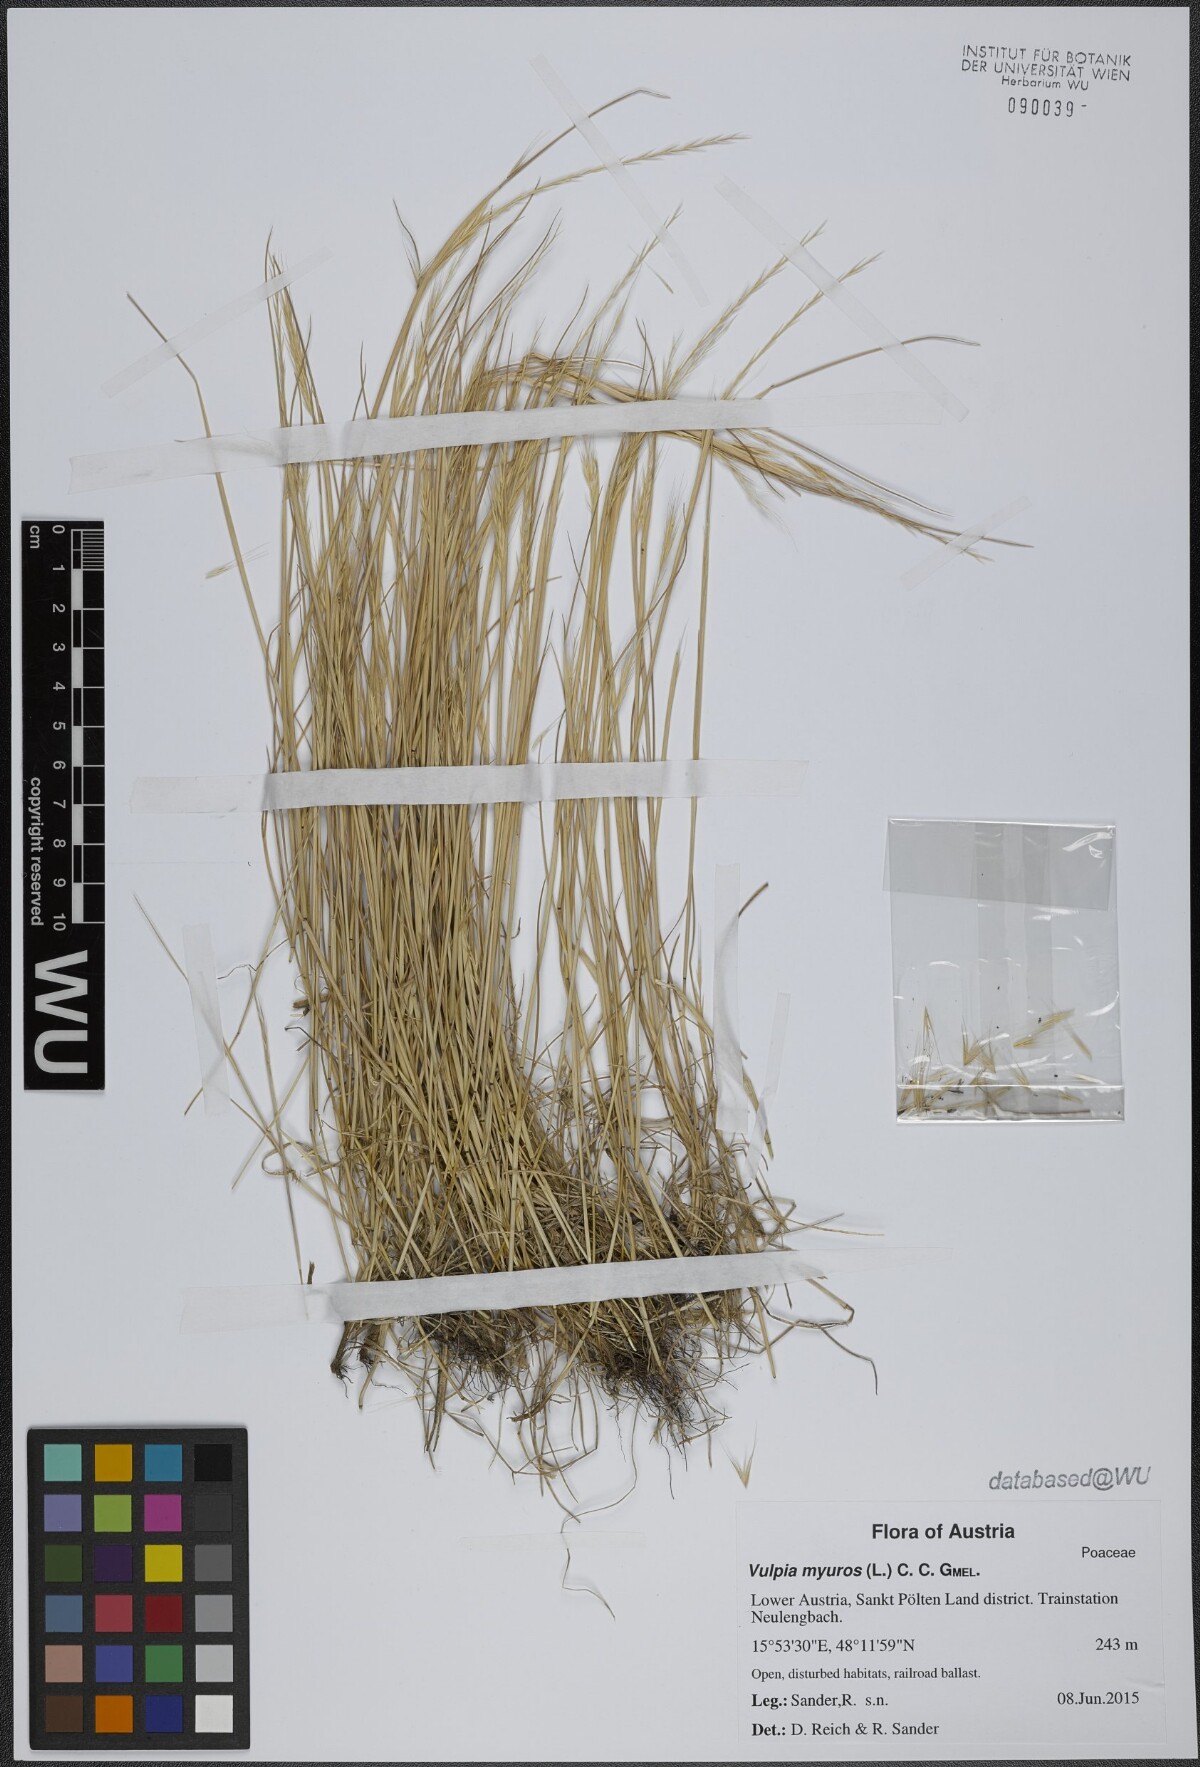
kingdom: Plantae
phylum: Tracheophyta
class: Liliopsida
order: Poales
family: Poaceae
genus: Festuca
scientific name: Festuca myuros
